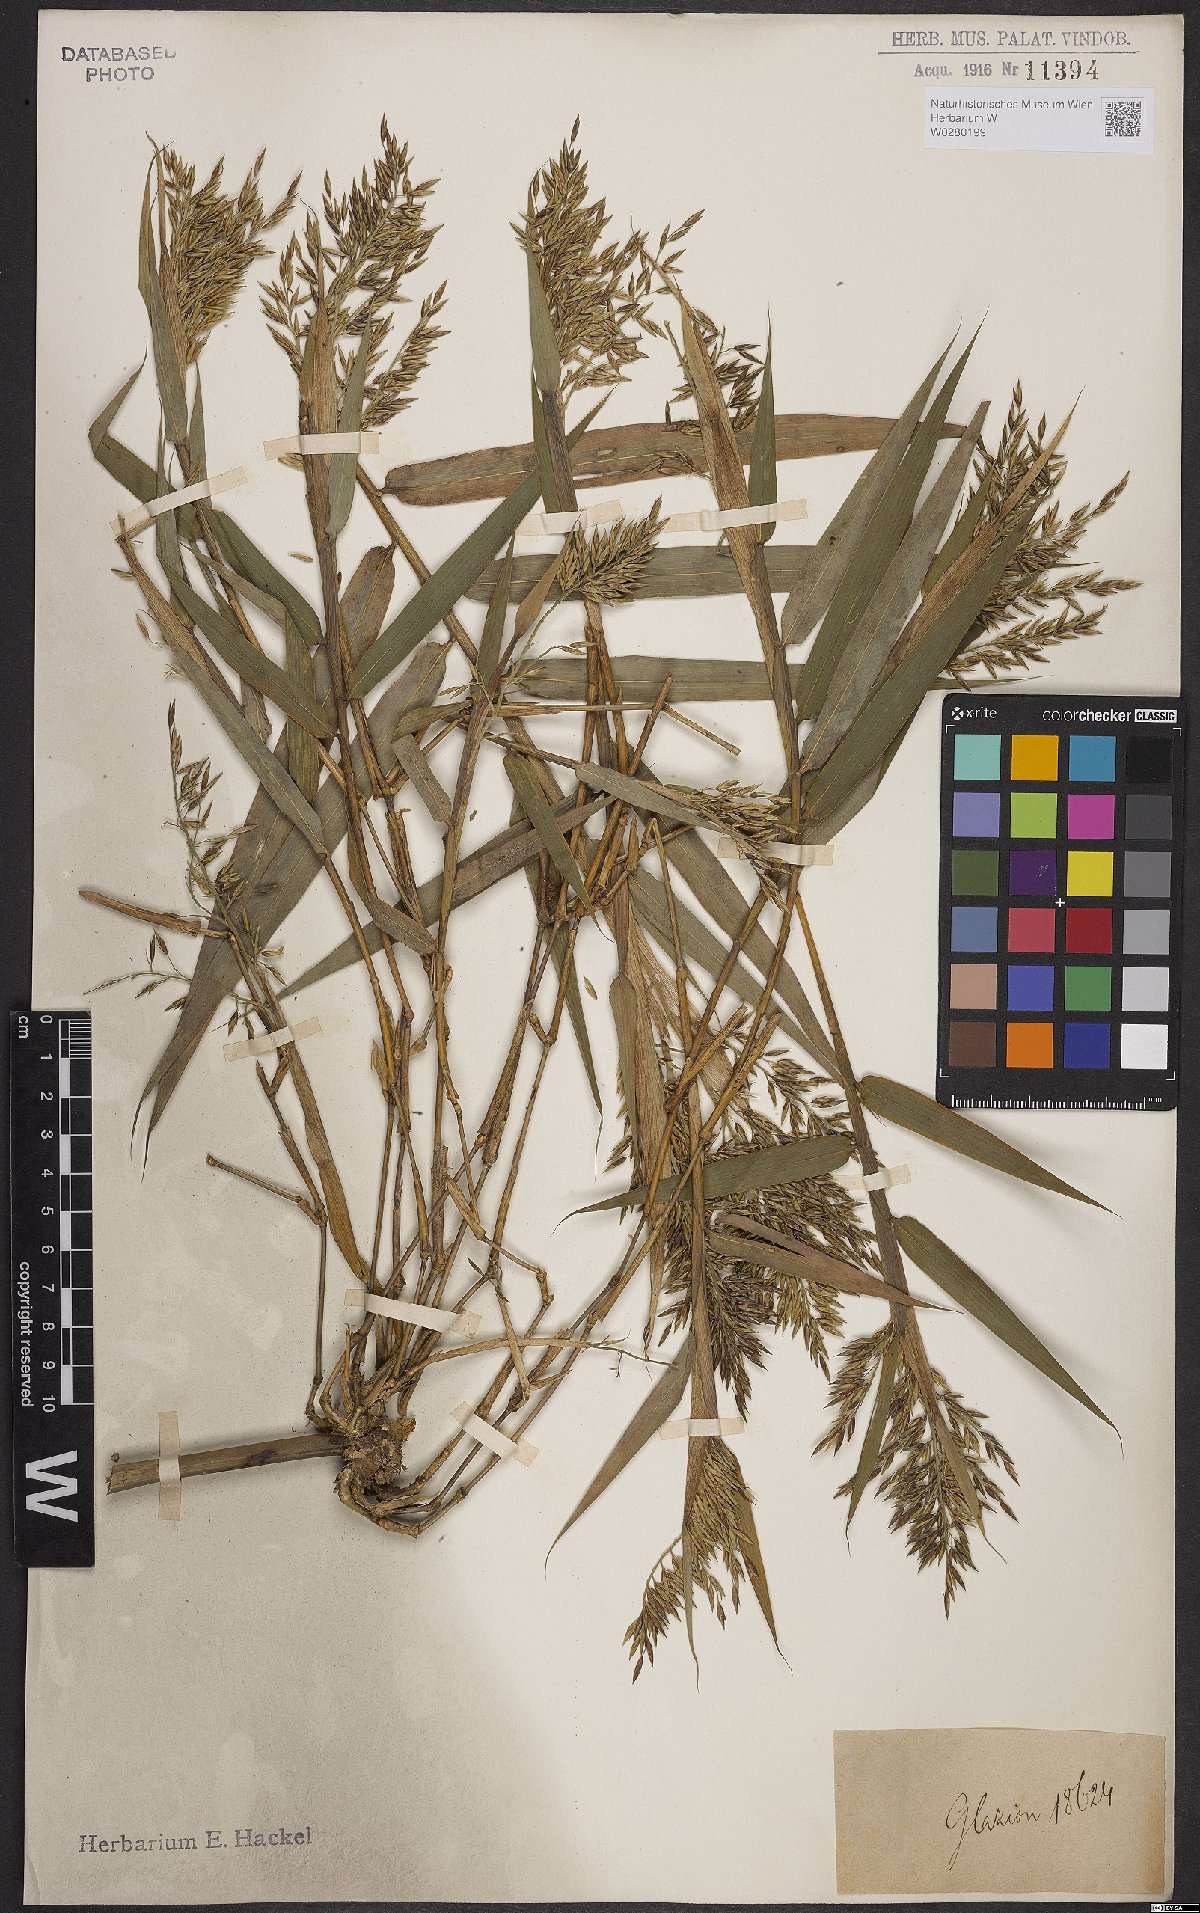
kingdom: Plantae
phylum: Tracheophyta
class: Liliopsida
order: Poales
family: Poaceae
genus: Chusquea
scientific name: Chusquea anelythroides
